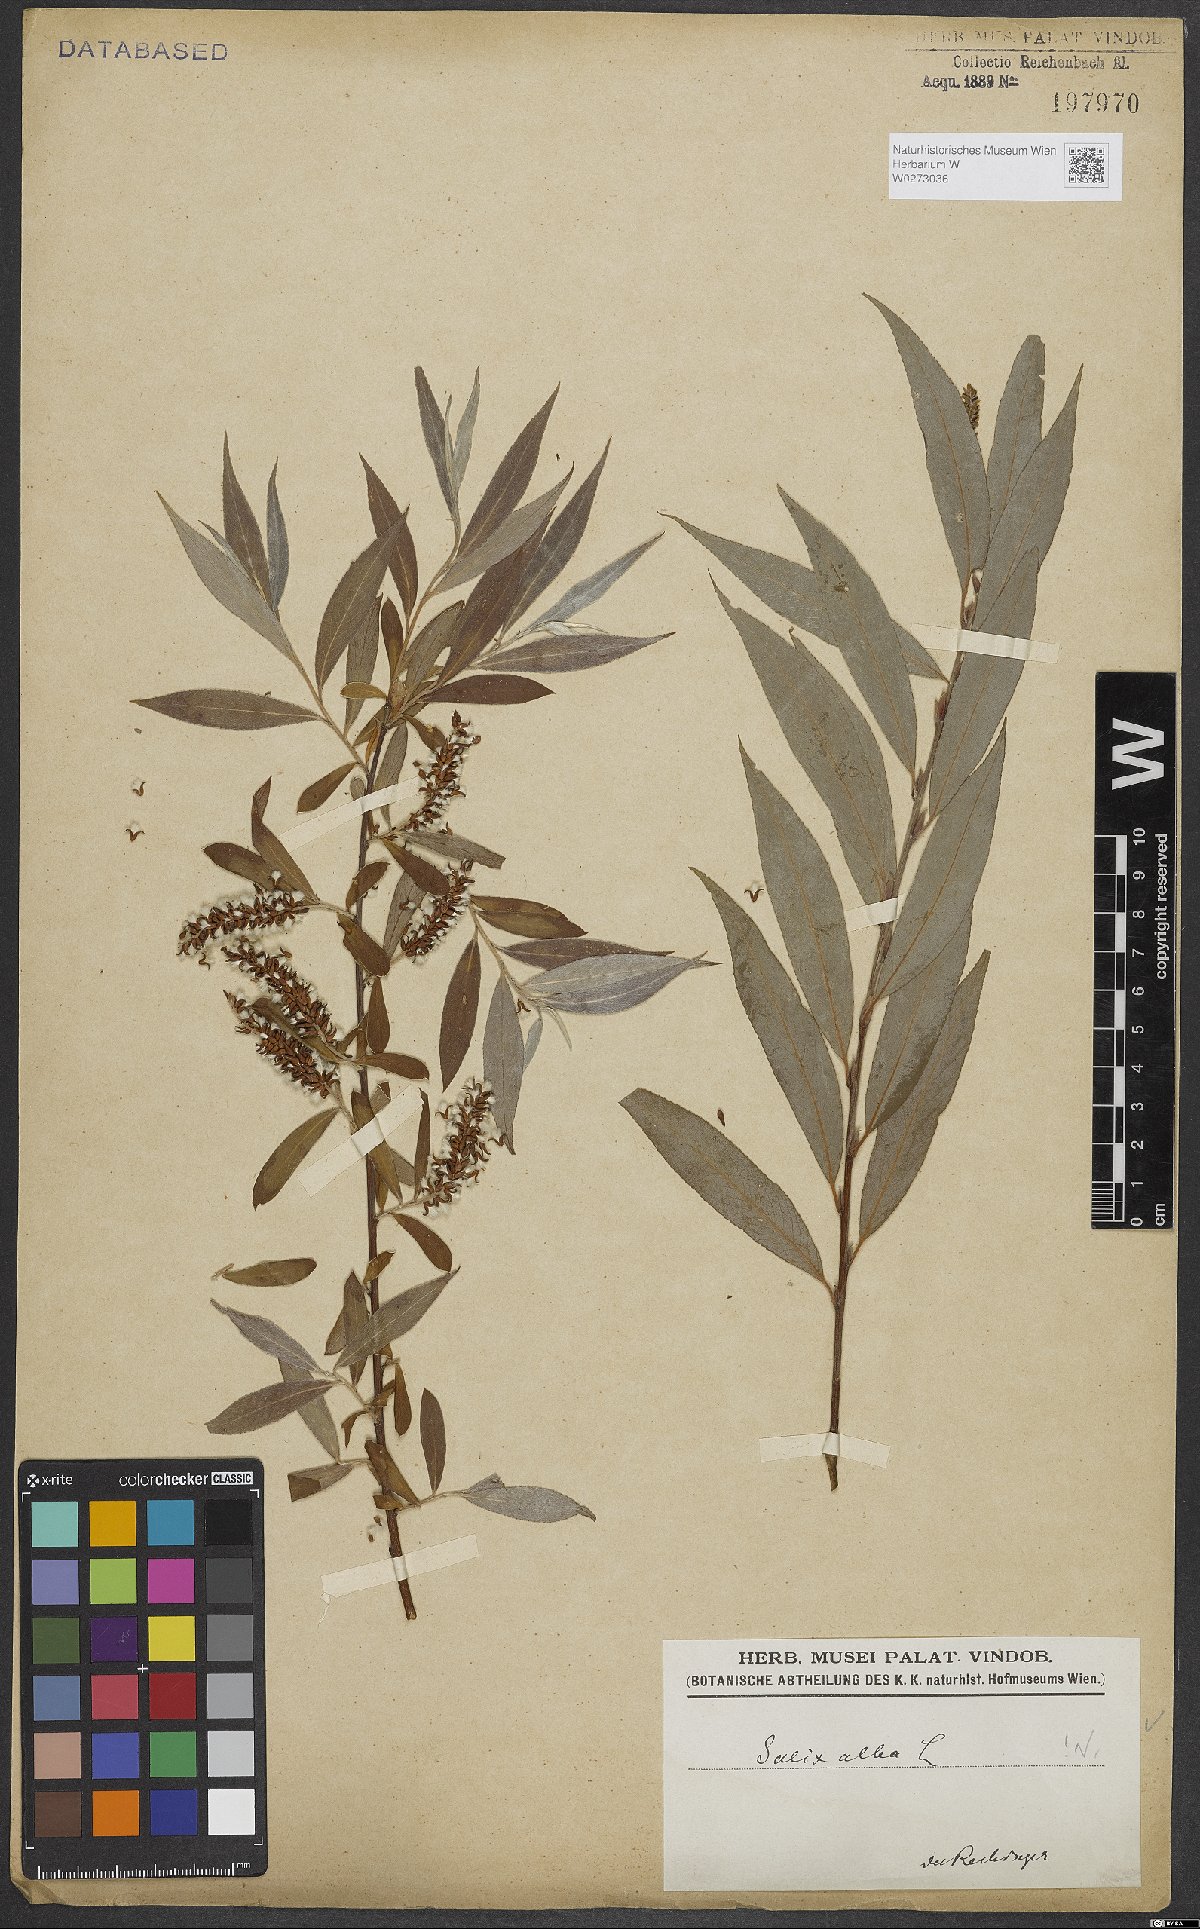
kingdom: Plantae
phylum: Tracheophyta
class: Magnoliopsida
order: Malpighiales
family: Salicaceae
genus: Salix
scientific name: Salix alba
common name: White willow
